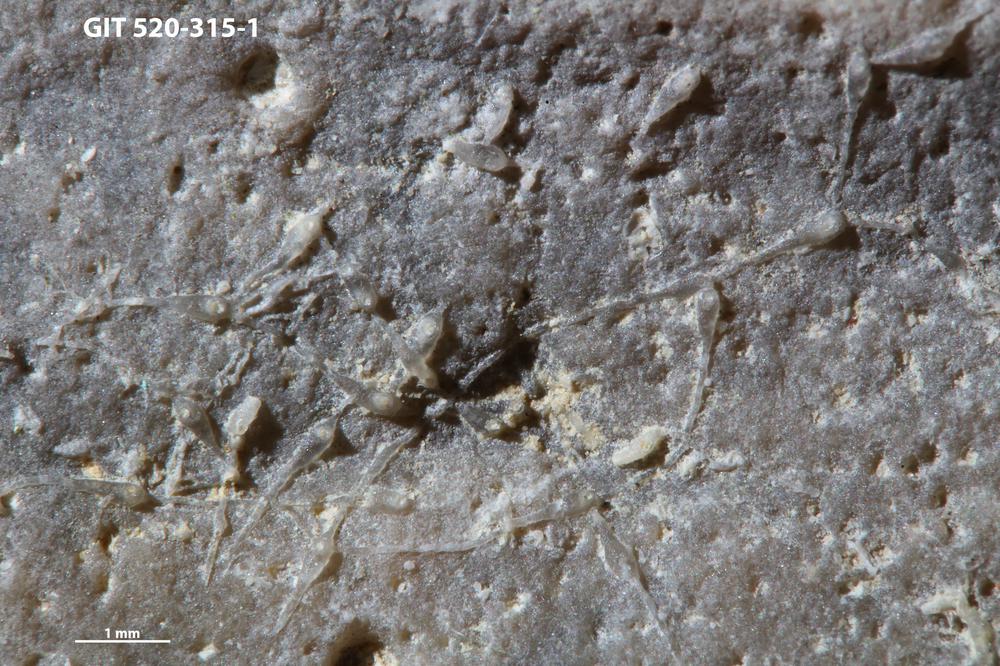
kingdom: Animalia
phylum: Bryozoa
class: Stenolaemata
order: Cyclostomatida
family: Corynotrypidae
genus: Corynotrypa
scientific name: Corynotrypa
